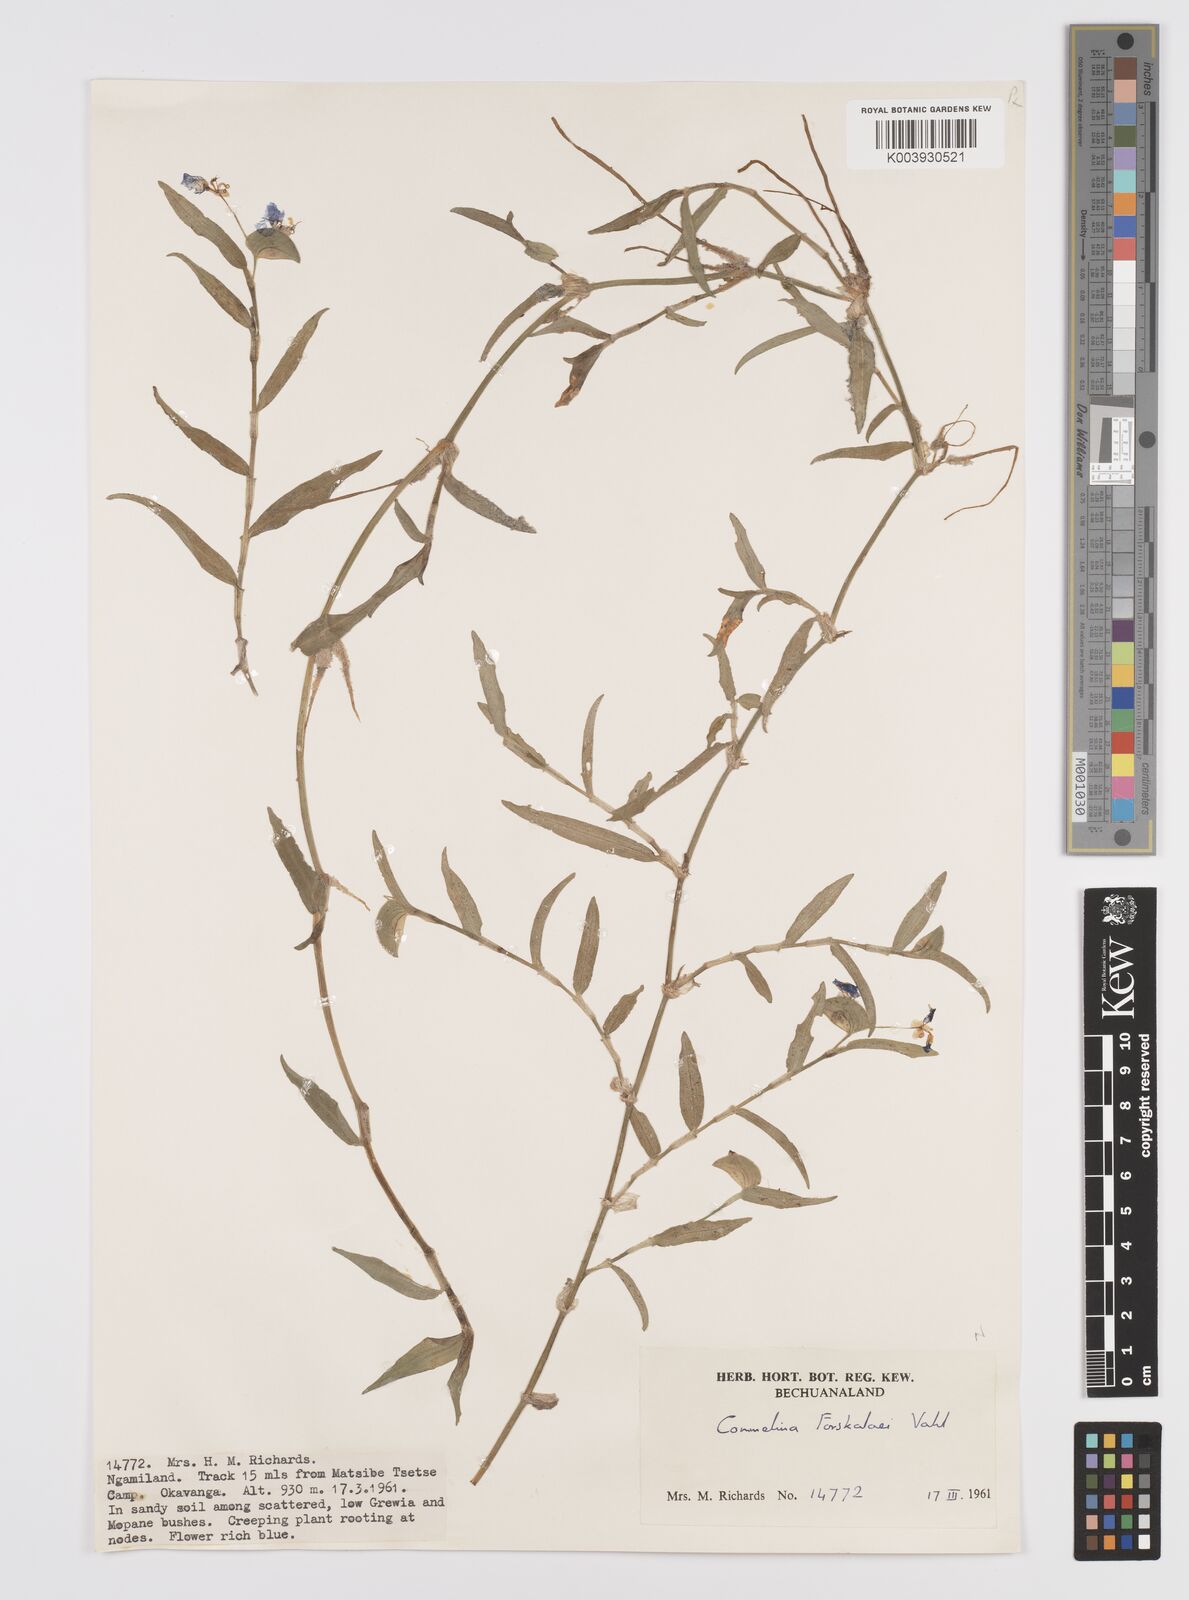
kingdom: Plantae
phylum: Tracheophyta
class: Liliopsida
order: Commelinales
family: Commelinaceae
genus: Commelina
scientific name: Commelina forskaolii
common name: Rat's ear
